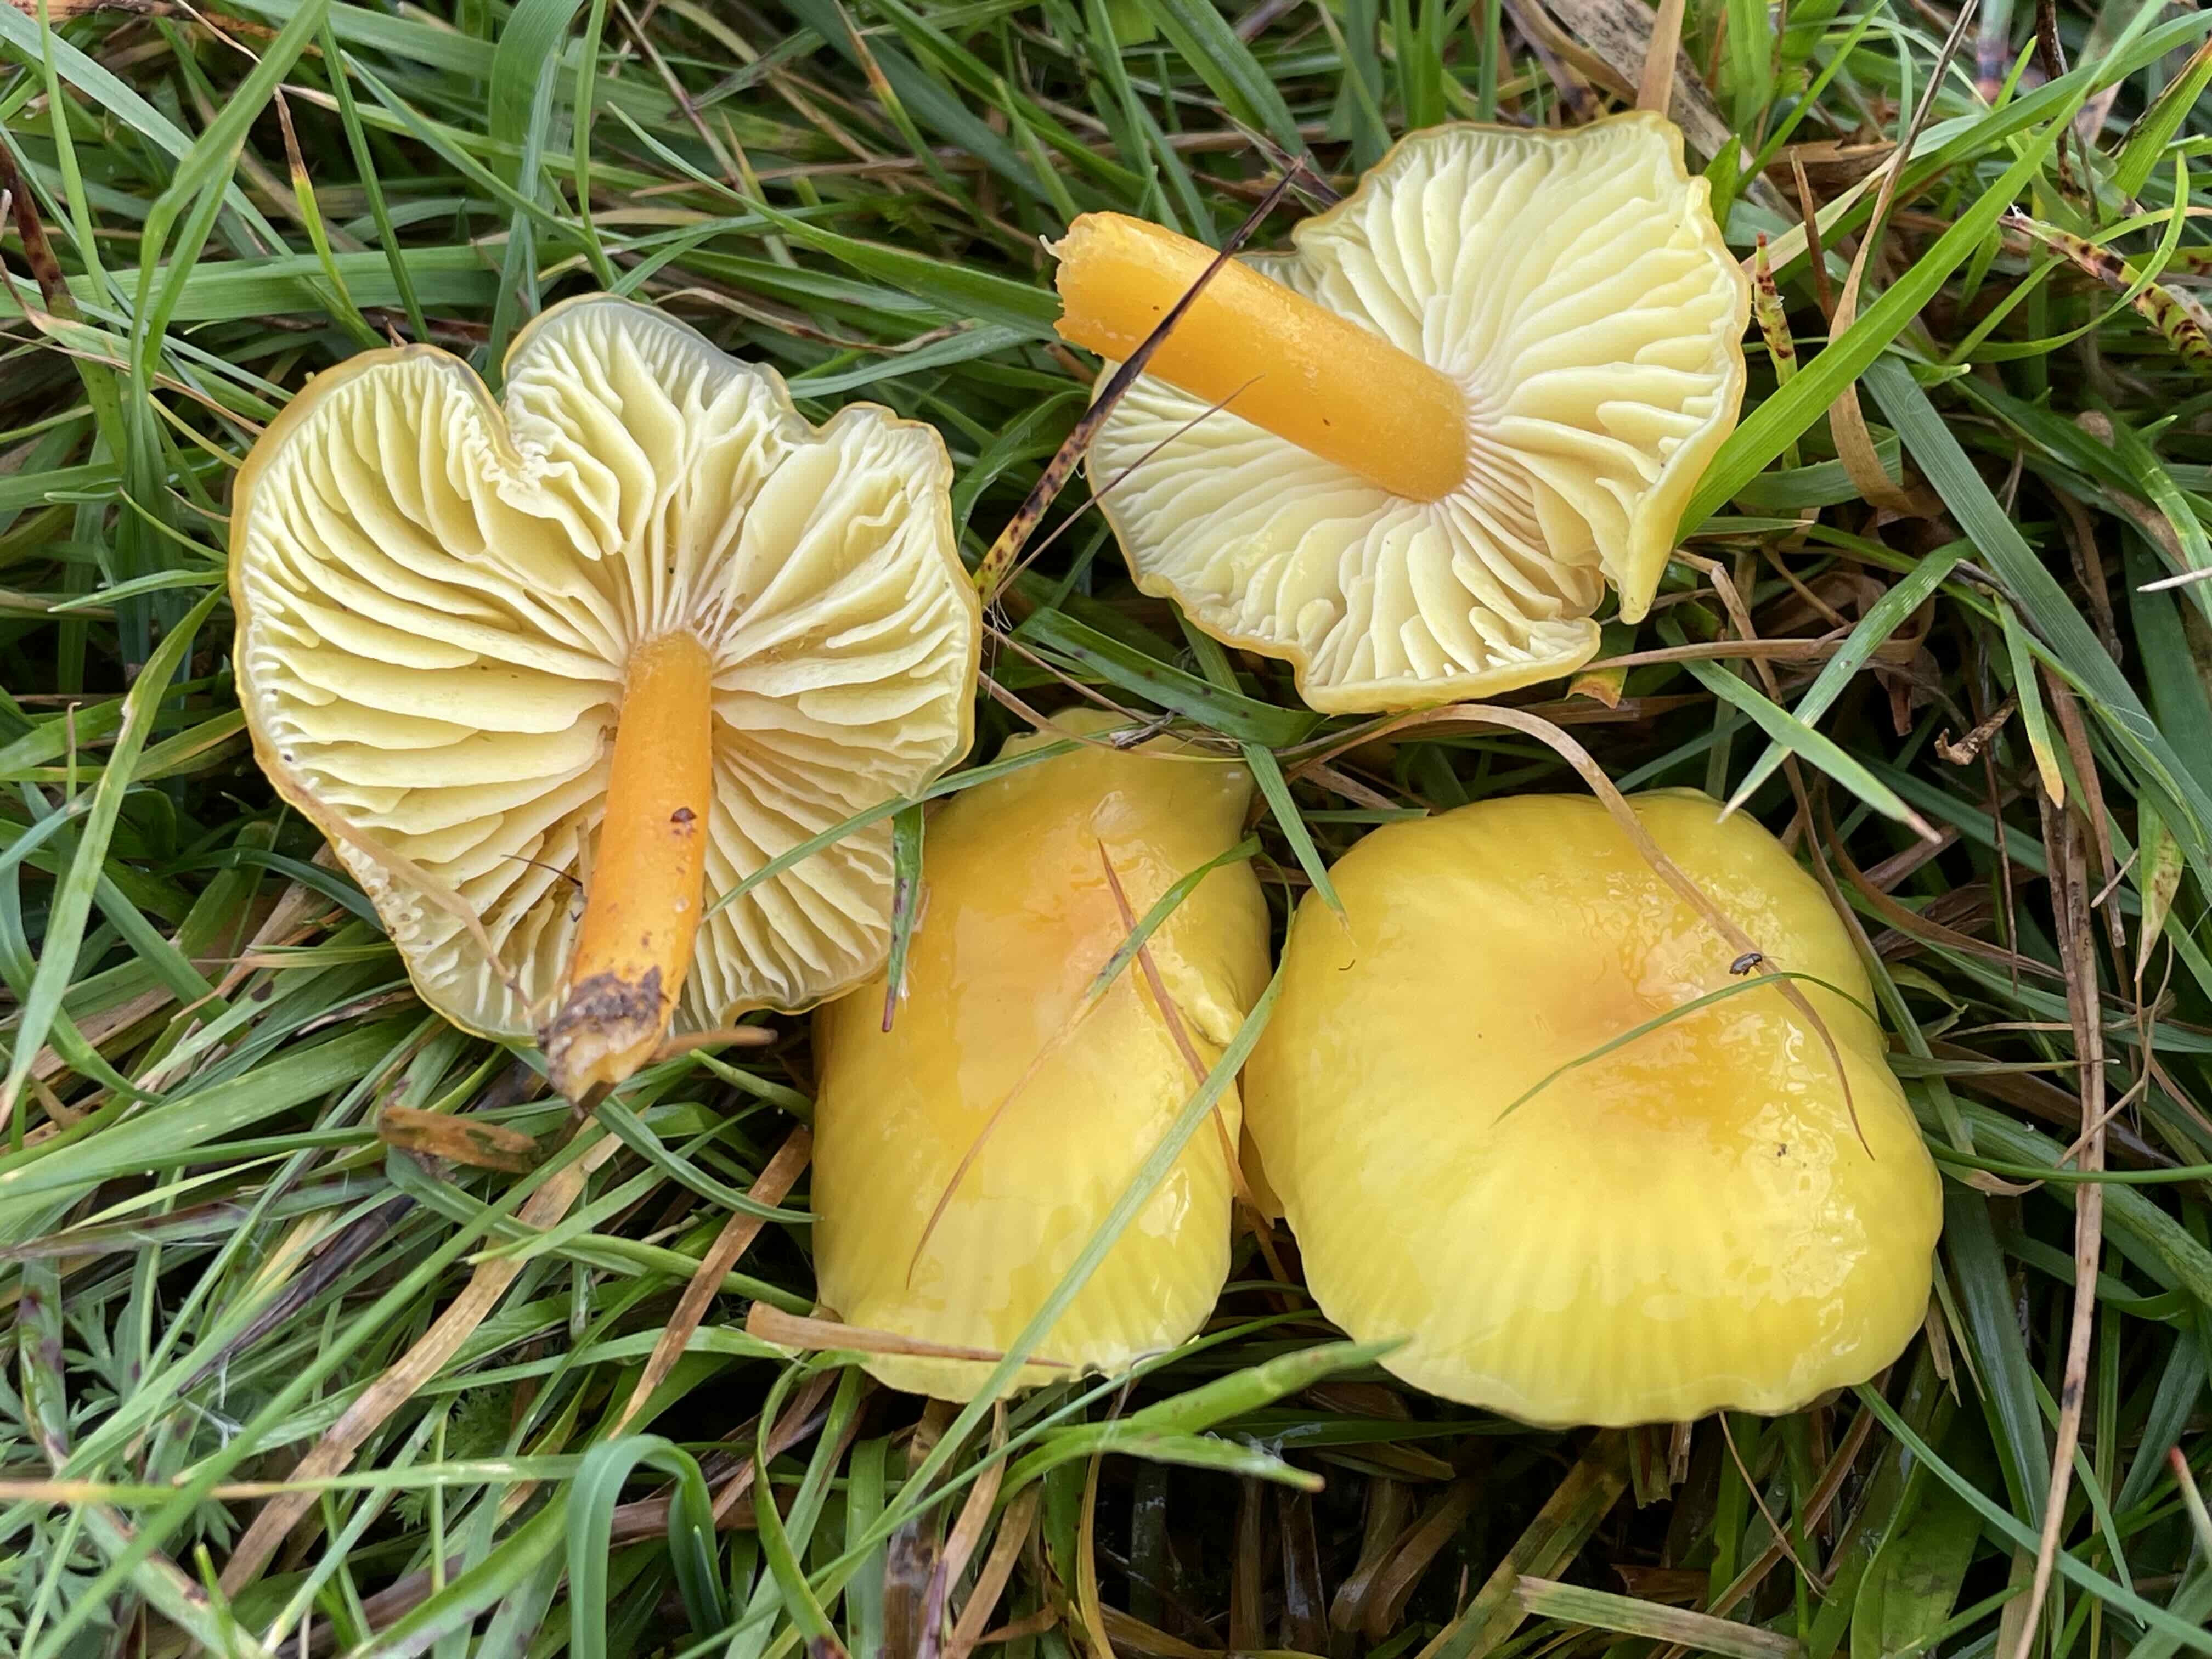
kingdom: Fungi
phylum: Basidiomycota
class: Agaricomycetes
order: Agaricales
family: Hygrophoraceae
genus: Hygrocybe
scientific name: Hygrocybe chlorophana
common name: gul vokshat
